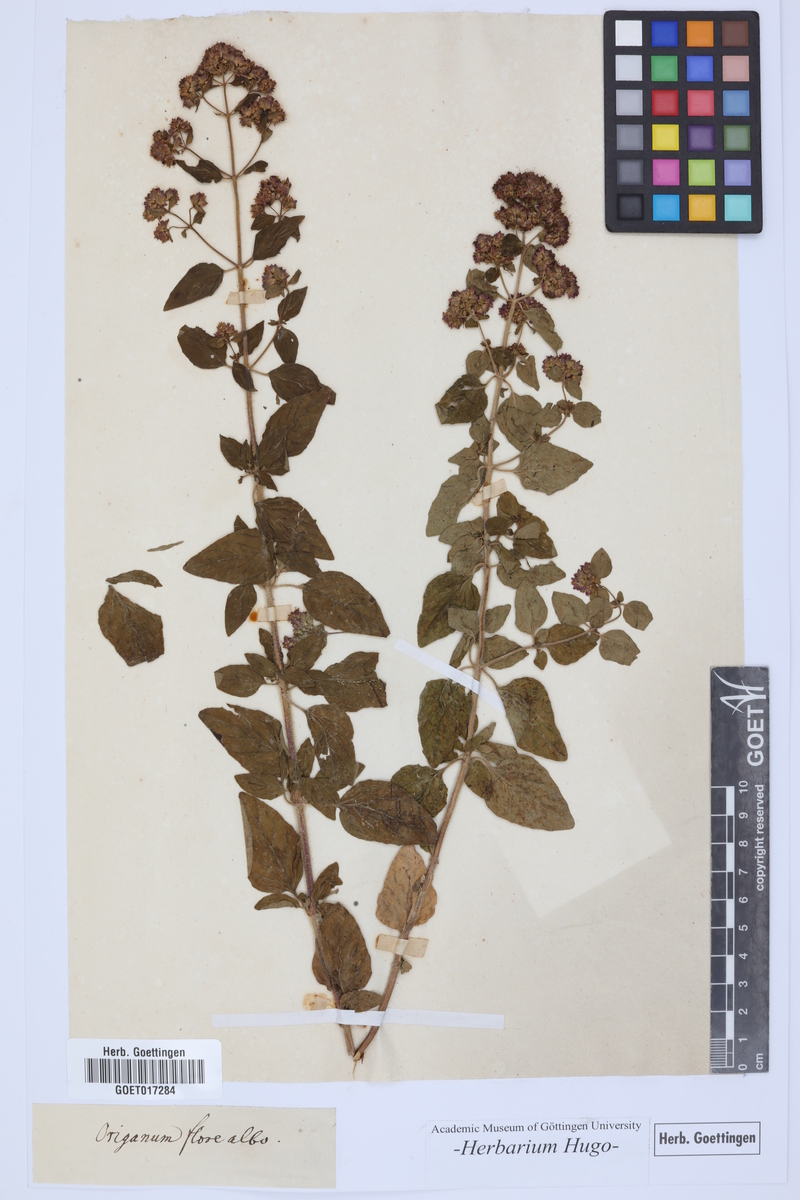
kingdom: Plantae
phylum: Tracheophyta
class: Magnoliopsida
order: Lamiales
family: Lamiaceae
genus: Origanum
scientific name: Origanum
